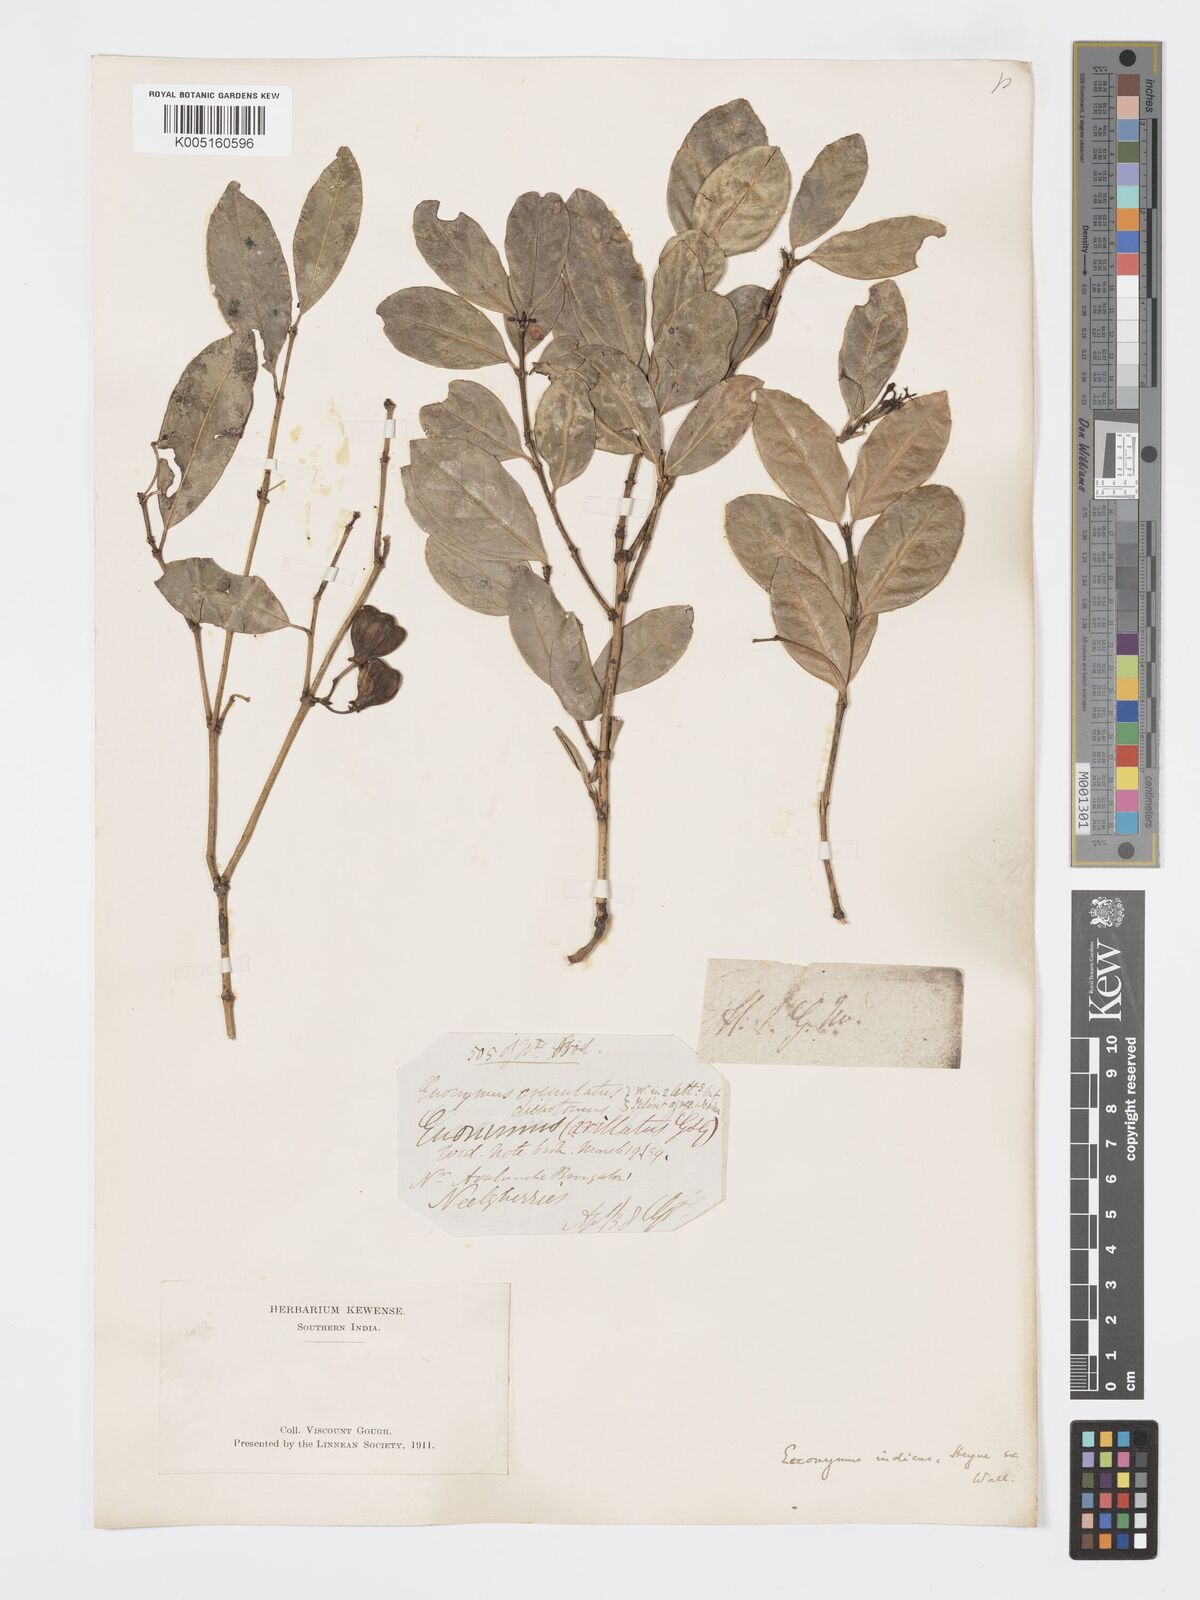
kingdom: Plantae
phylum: Tracheophyta
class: Magnoliopsida
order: Celastrales
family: Celastraceae
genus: Euonymus
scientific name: Euonymus crenulatus
